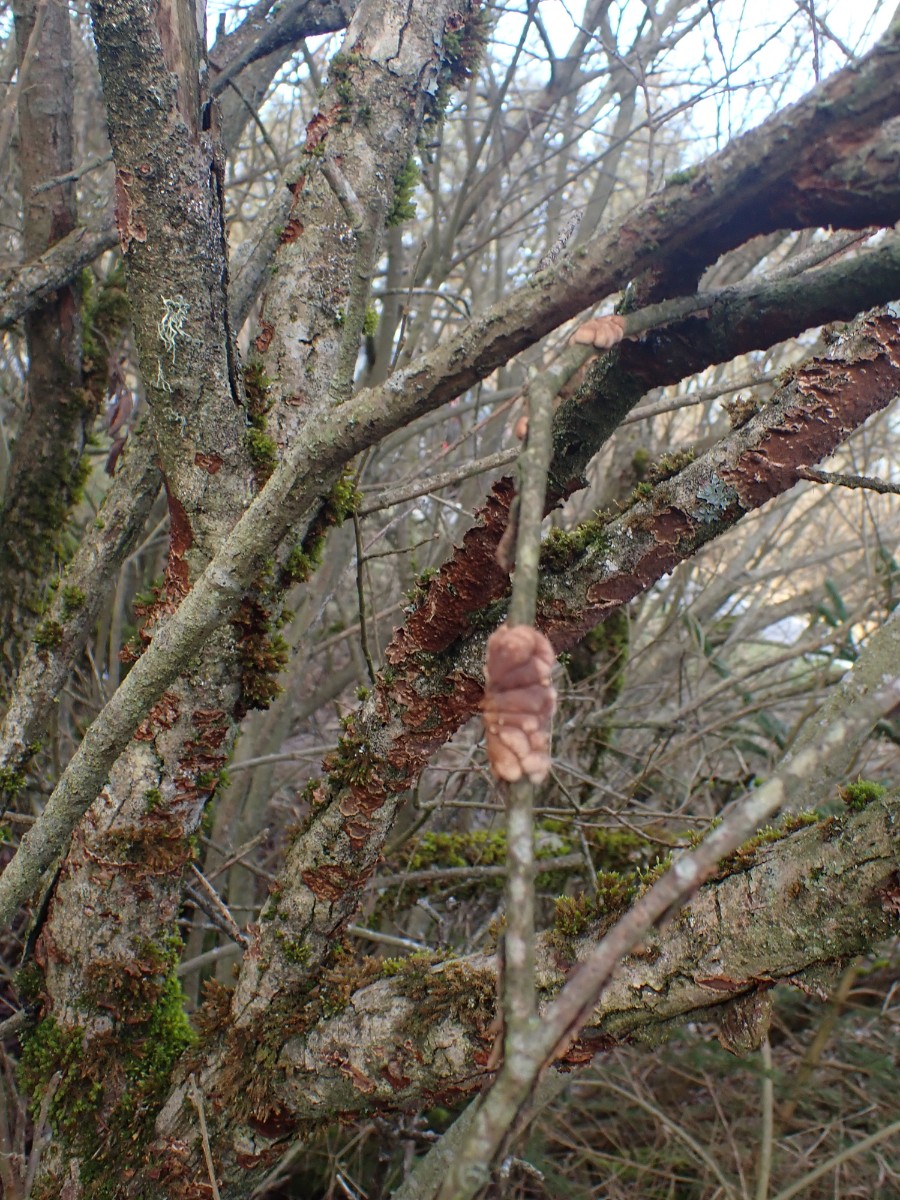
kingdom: Fungi
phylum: Basidiomycota
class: Agaricomycetes
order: Hymenochaetales
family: Hymenochaetaceae
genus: Hydnoporia
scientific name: Hydnoporia tabacina
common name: tobaksbrun ruslædersvamp
